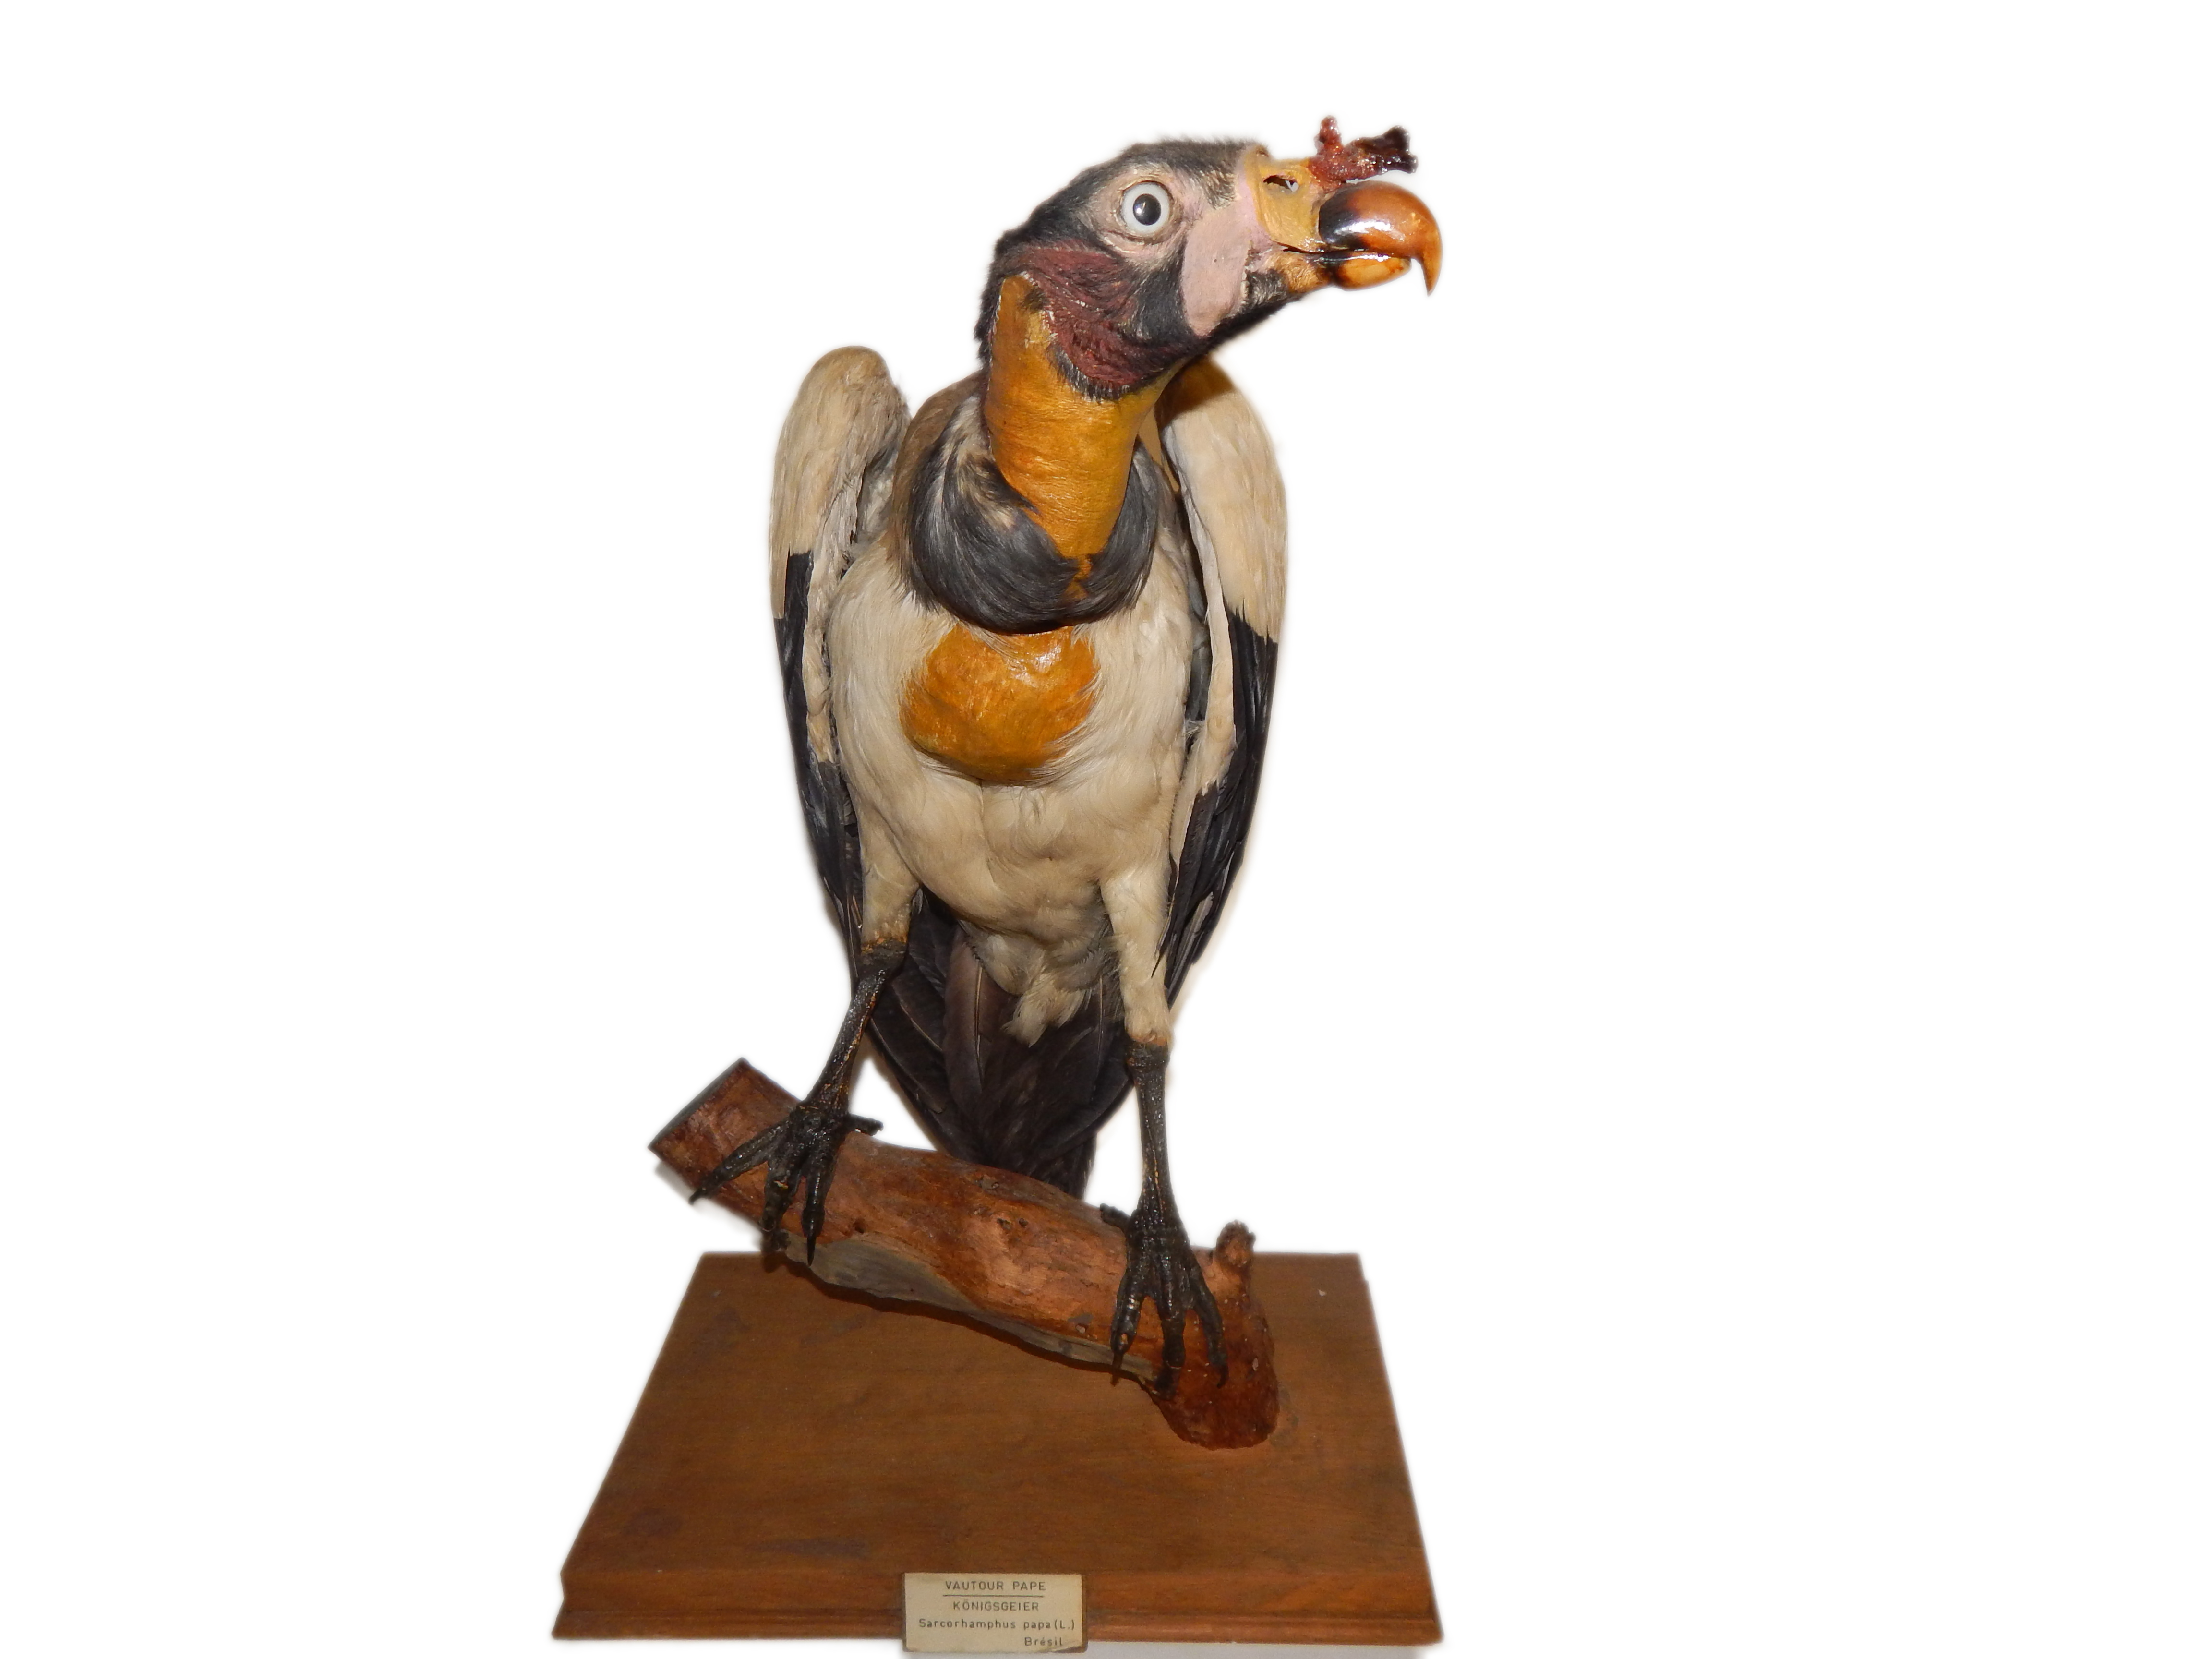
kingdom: Animalia
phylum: Chordata
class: Aves
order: Accipitriformes
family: Cathartidae
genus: Sarcoramphus
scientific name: Sarcoramphus papa
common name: King vulture
